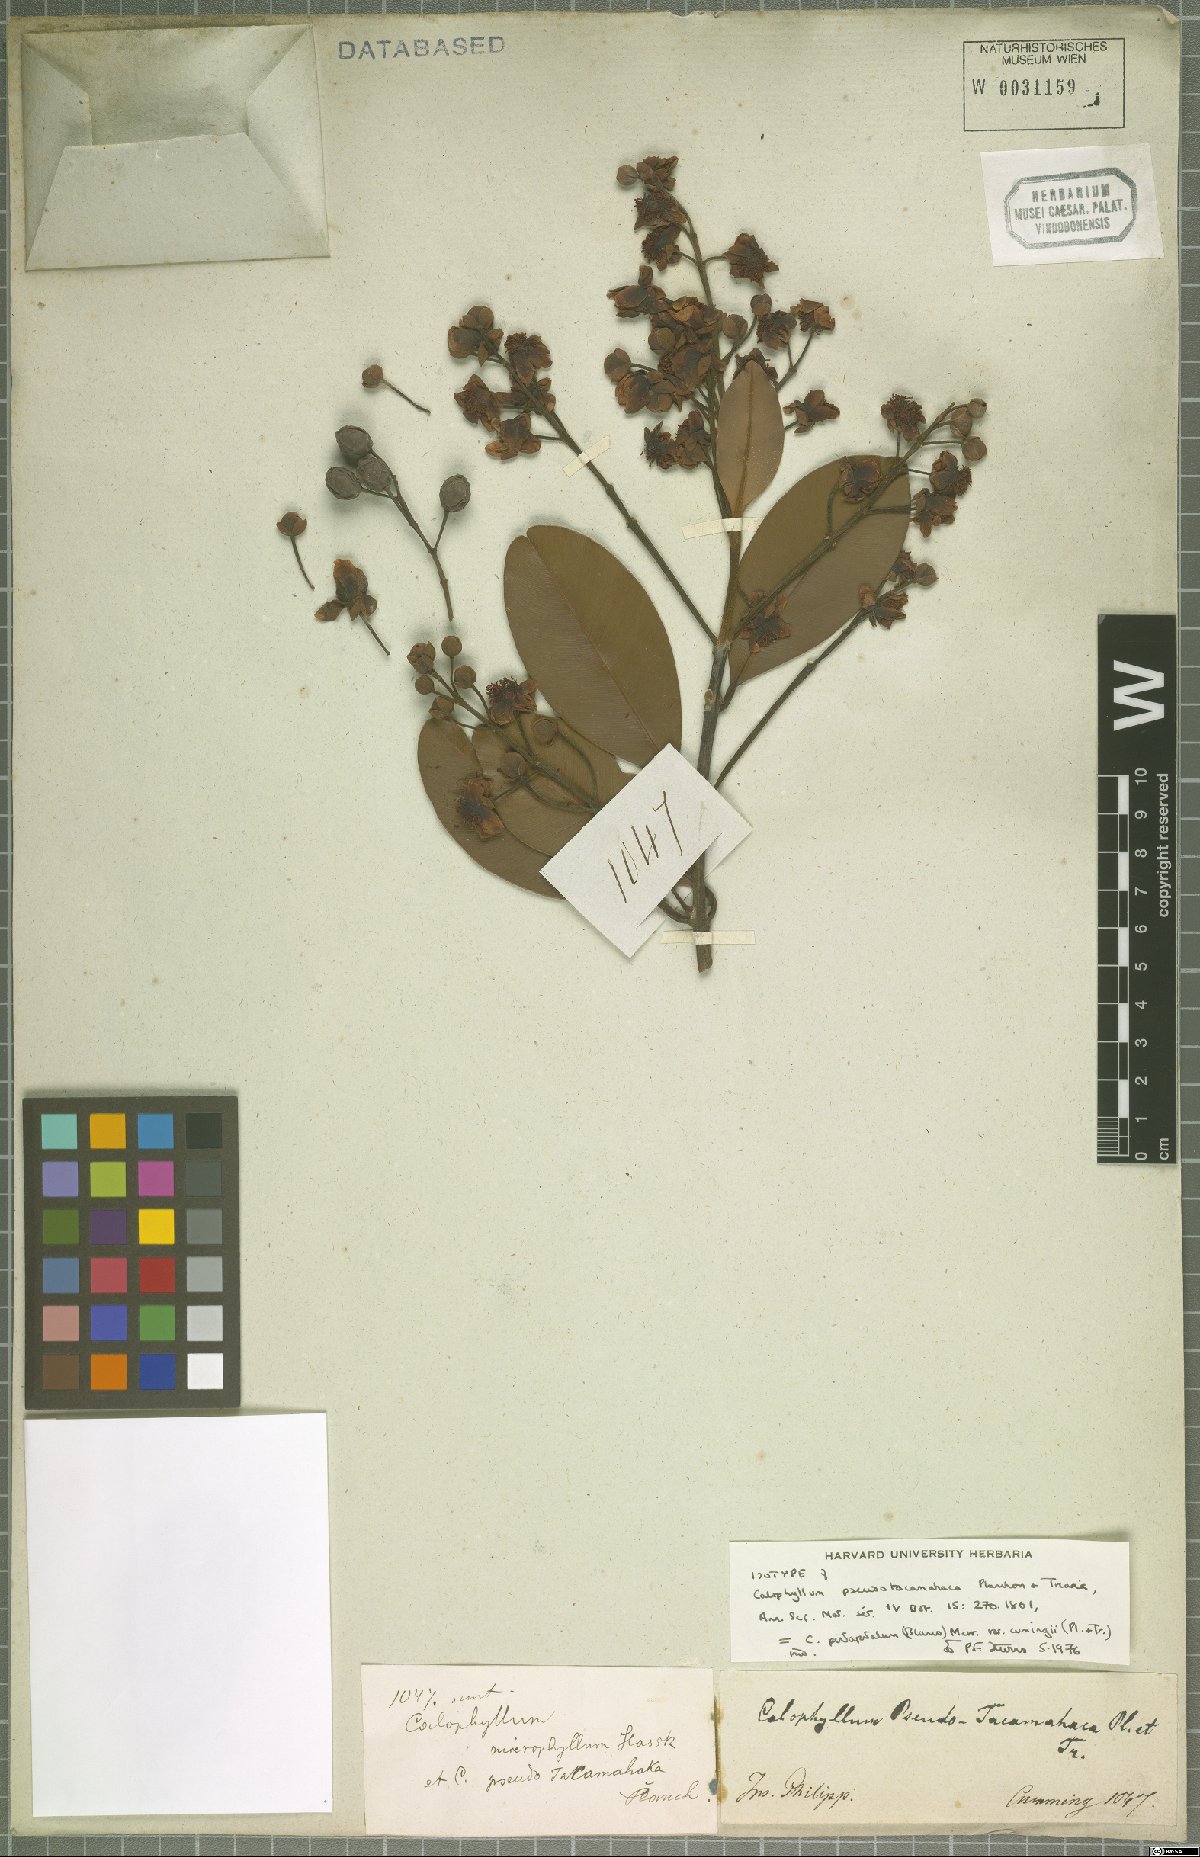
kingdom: Plantae
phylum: Tracheophyta
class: Magnoliopsida
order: Malpighiales
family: Calophyllaceae
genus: Calophyllum
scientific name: Calophyllum pentapetalum
